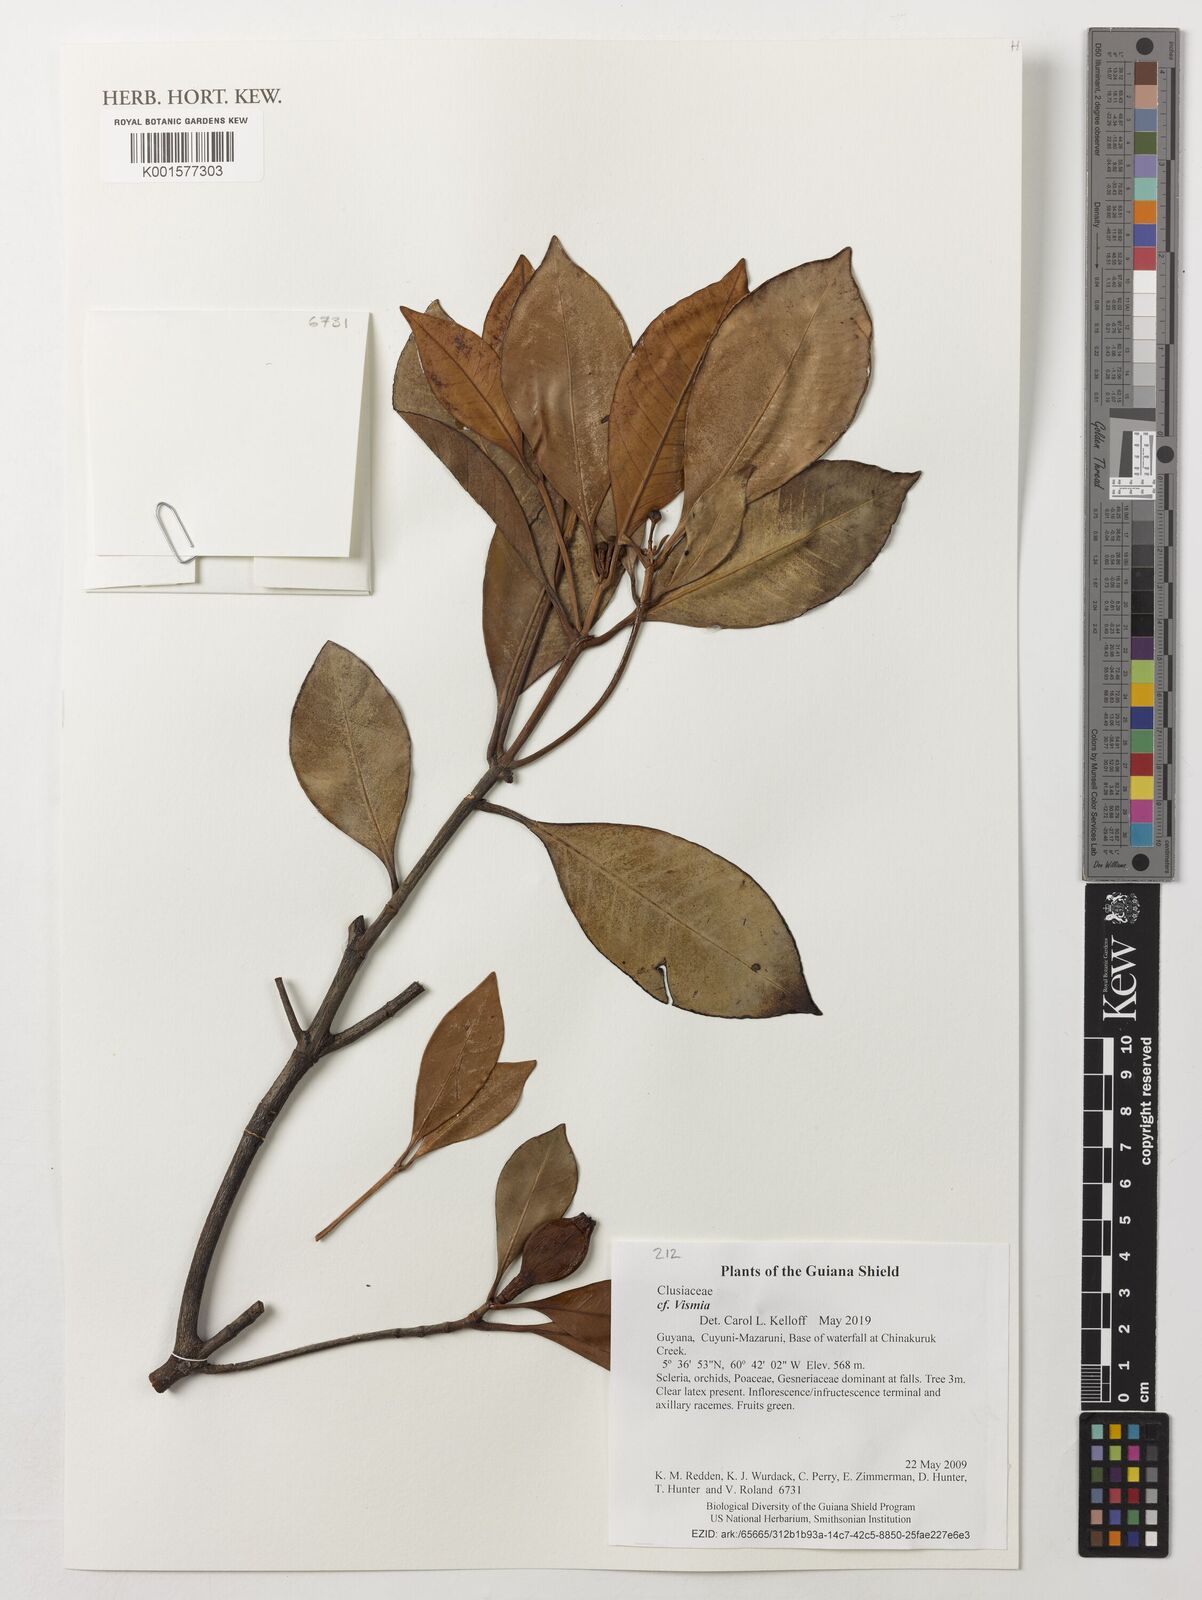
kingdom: Plantae
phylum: Tracheophyta
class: Magnoliopsida
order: Malpighiales
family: Hypericaceae
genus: Vismia
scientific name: Vismia
